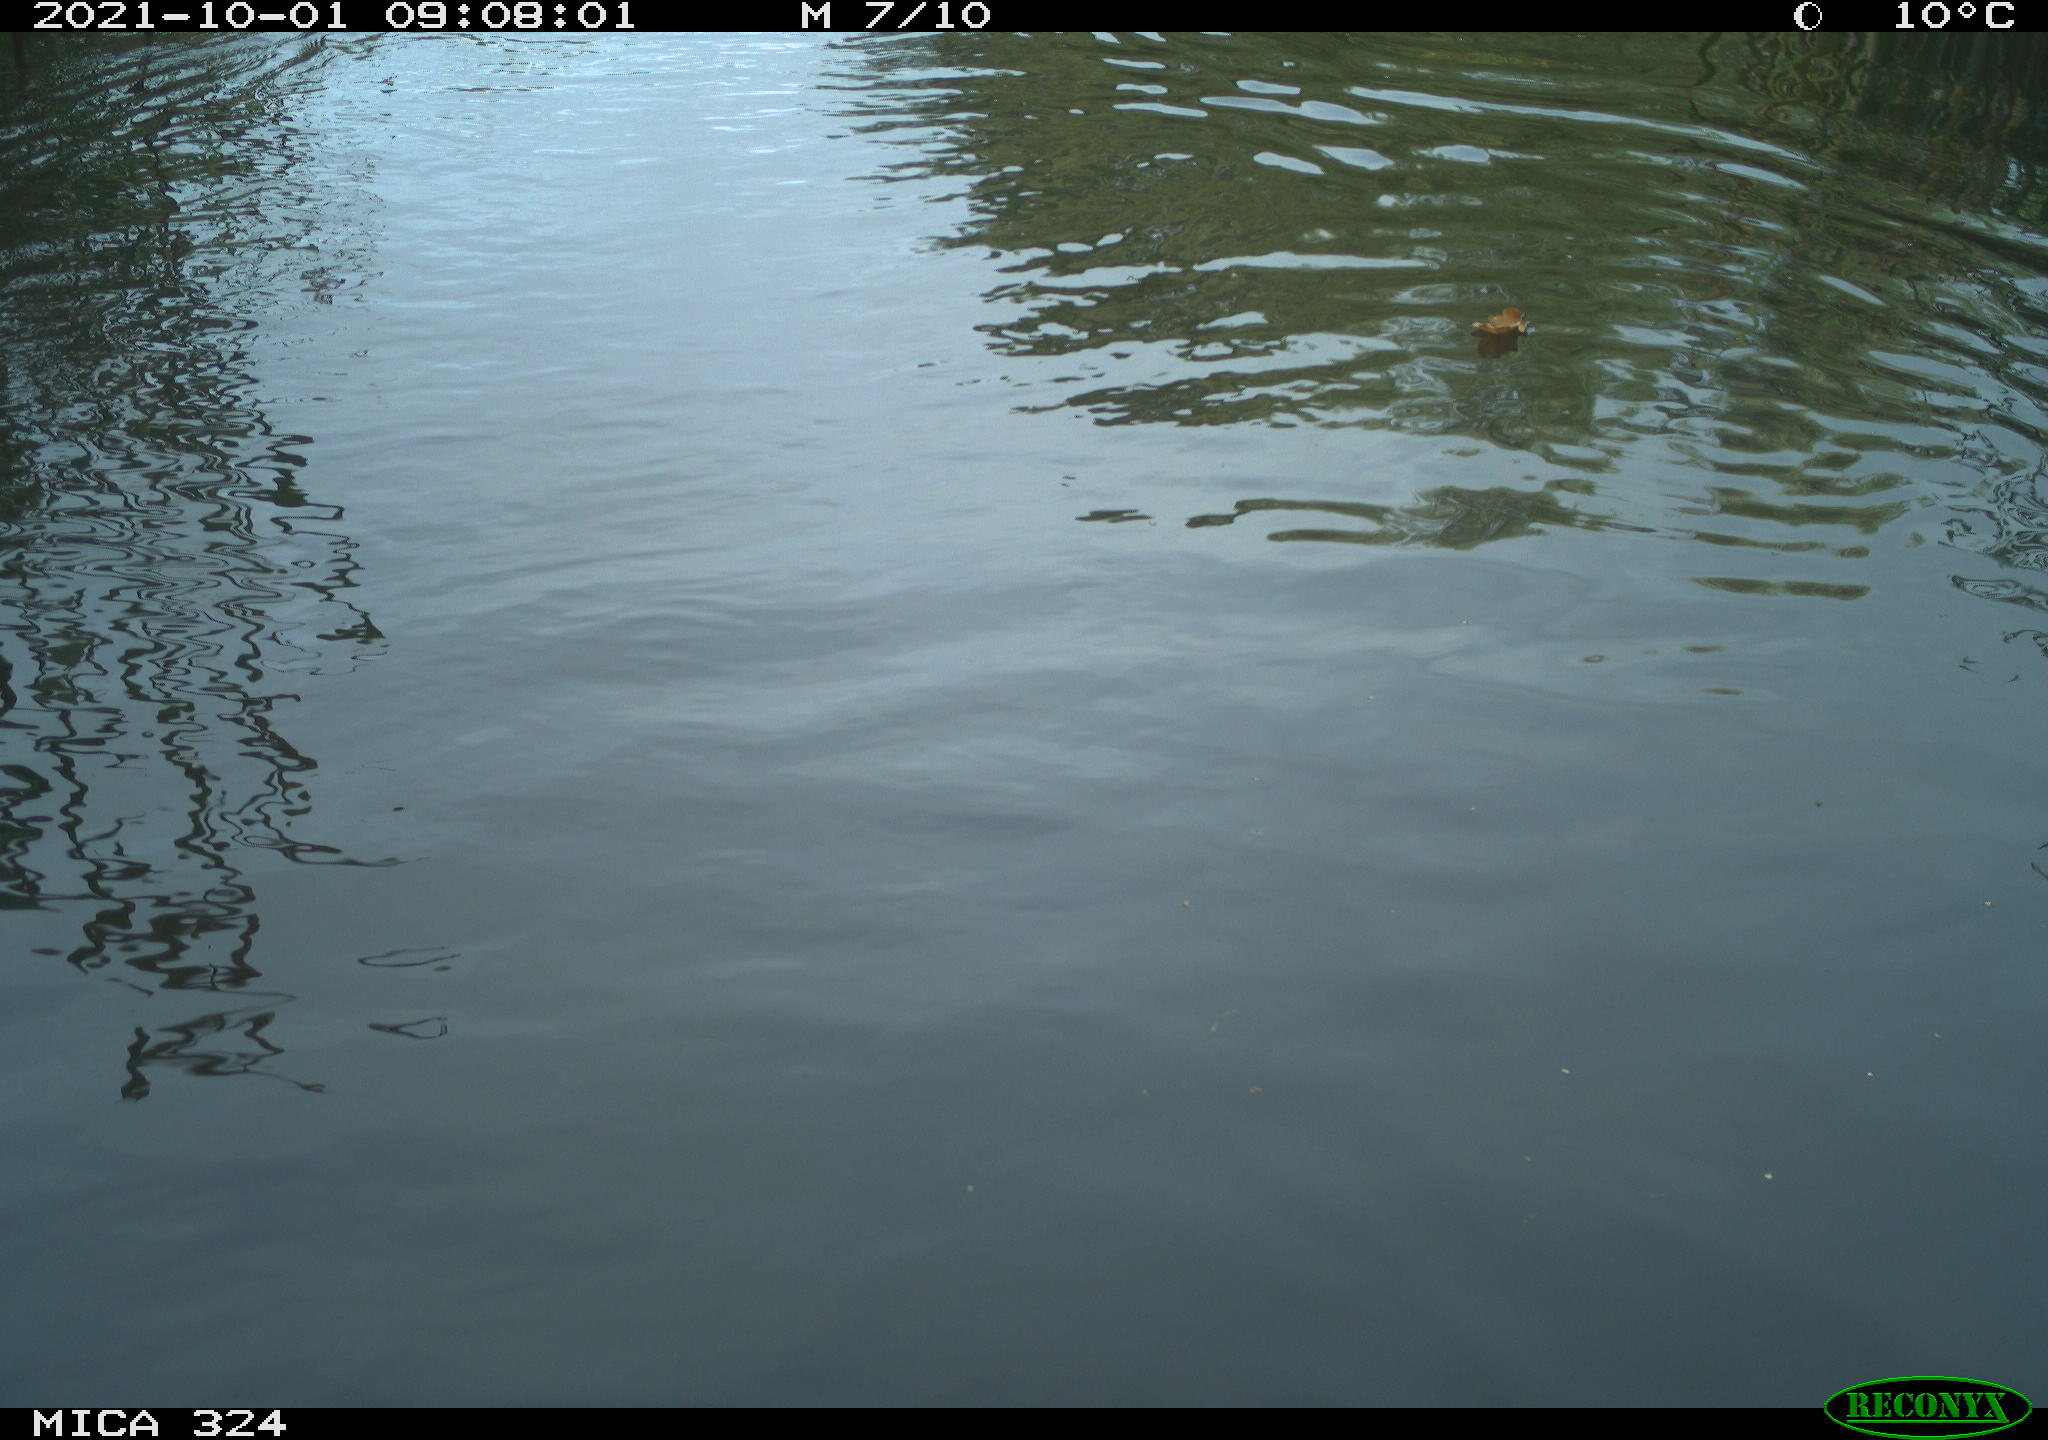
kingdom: Animalia
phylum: Chordata
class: Mammalia
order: Rodentia
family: Cricetidae
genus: Ondatra
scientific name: Ondatra zibethicus
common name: Muskrat
